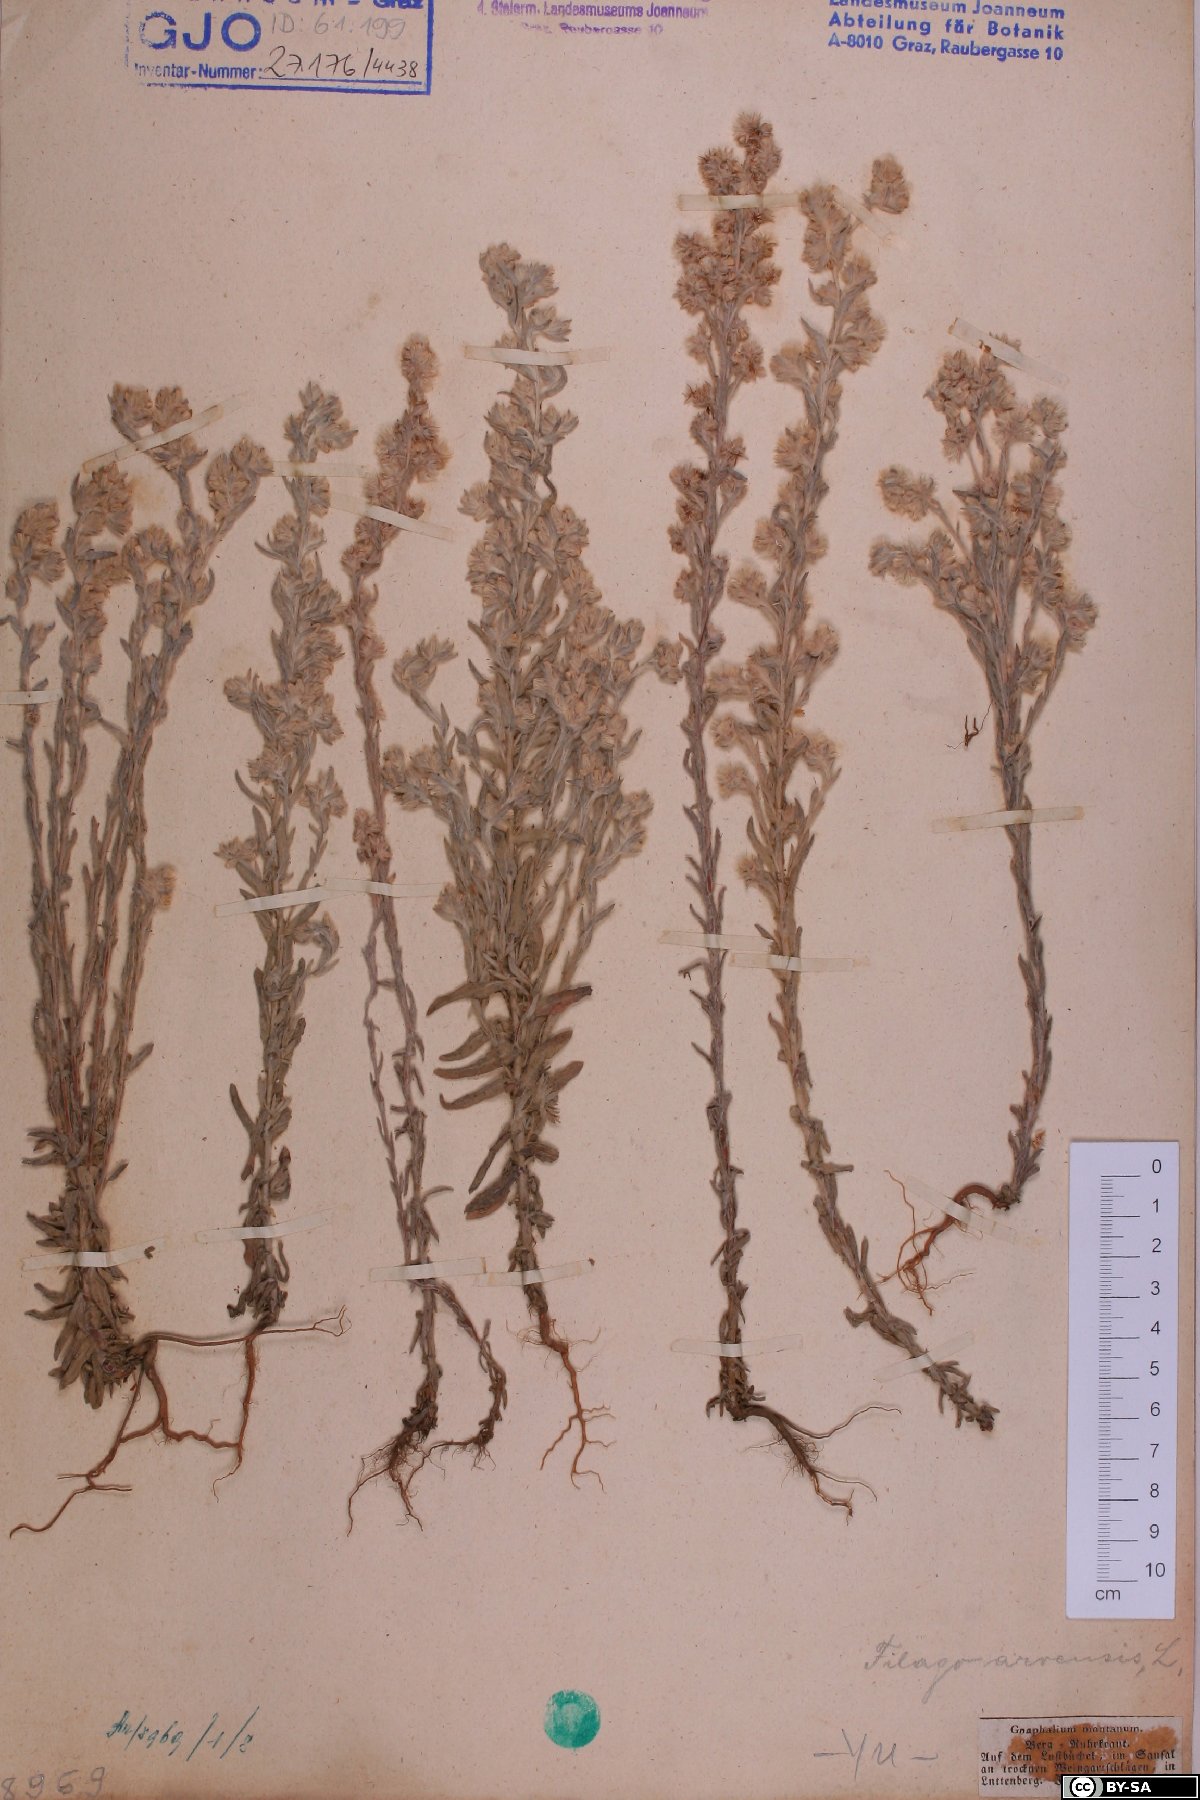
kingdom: Plantae
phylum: Tracheophyta
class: Magnoliopsida
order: Asterales
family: Asteraceae
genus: Filago
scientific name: Filago arvensis
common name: Field cudweed
